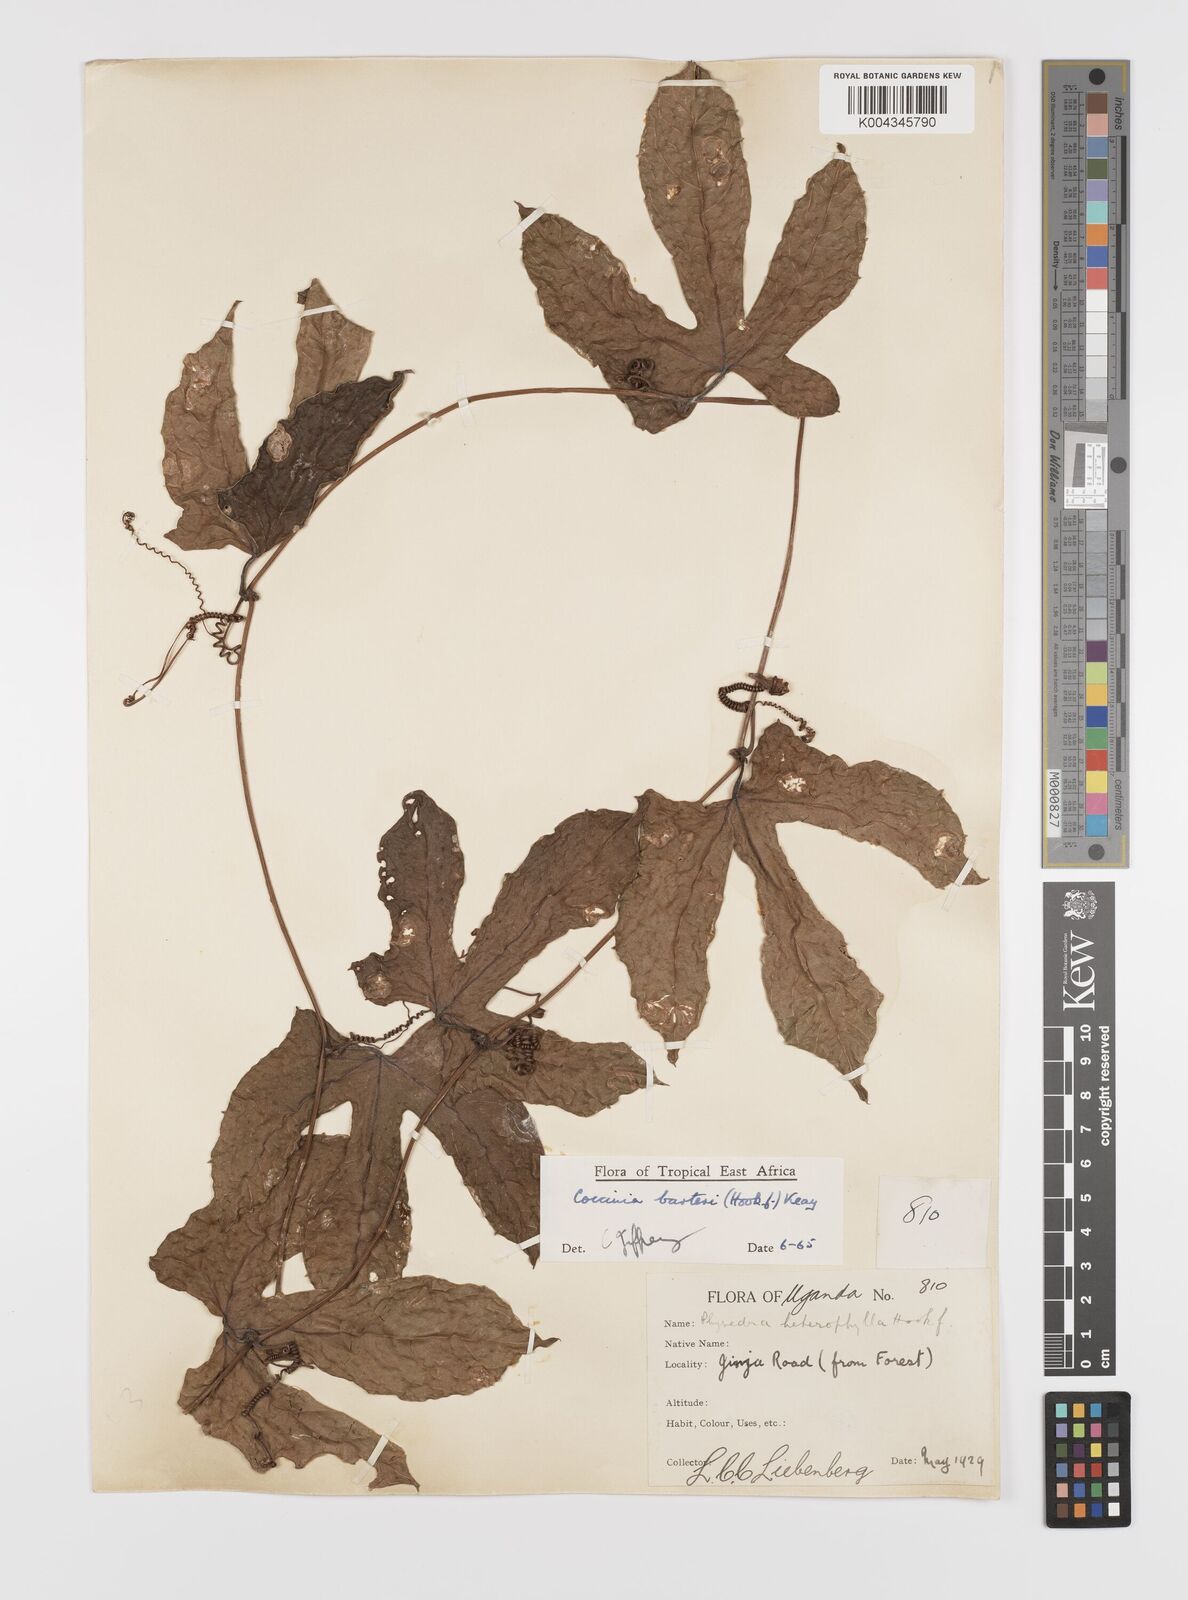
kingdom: Plantae
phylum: Tracheophyta
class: Magnoliopsida
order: Cucurbitales
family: Cucurbitaceae
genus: Coccinia
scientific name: Coccinia barteri
